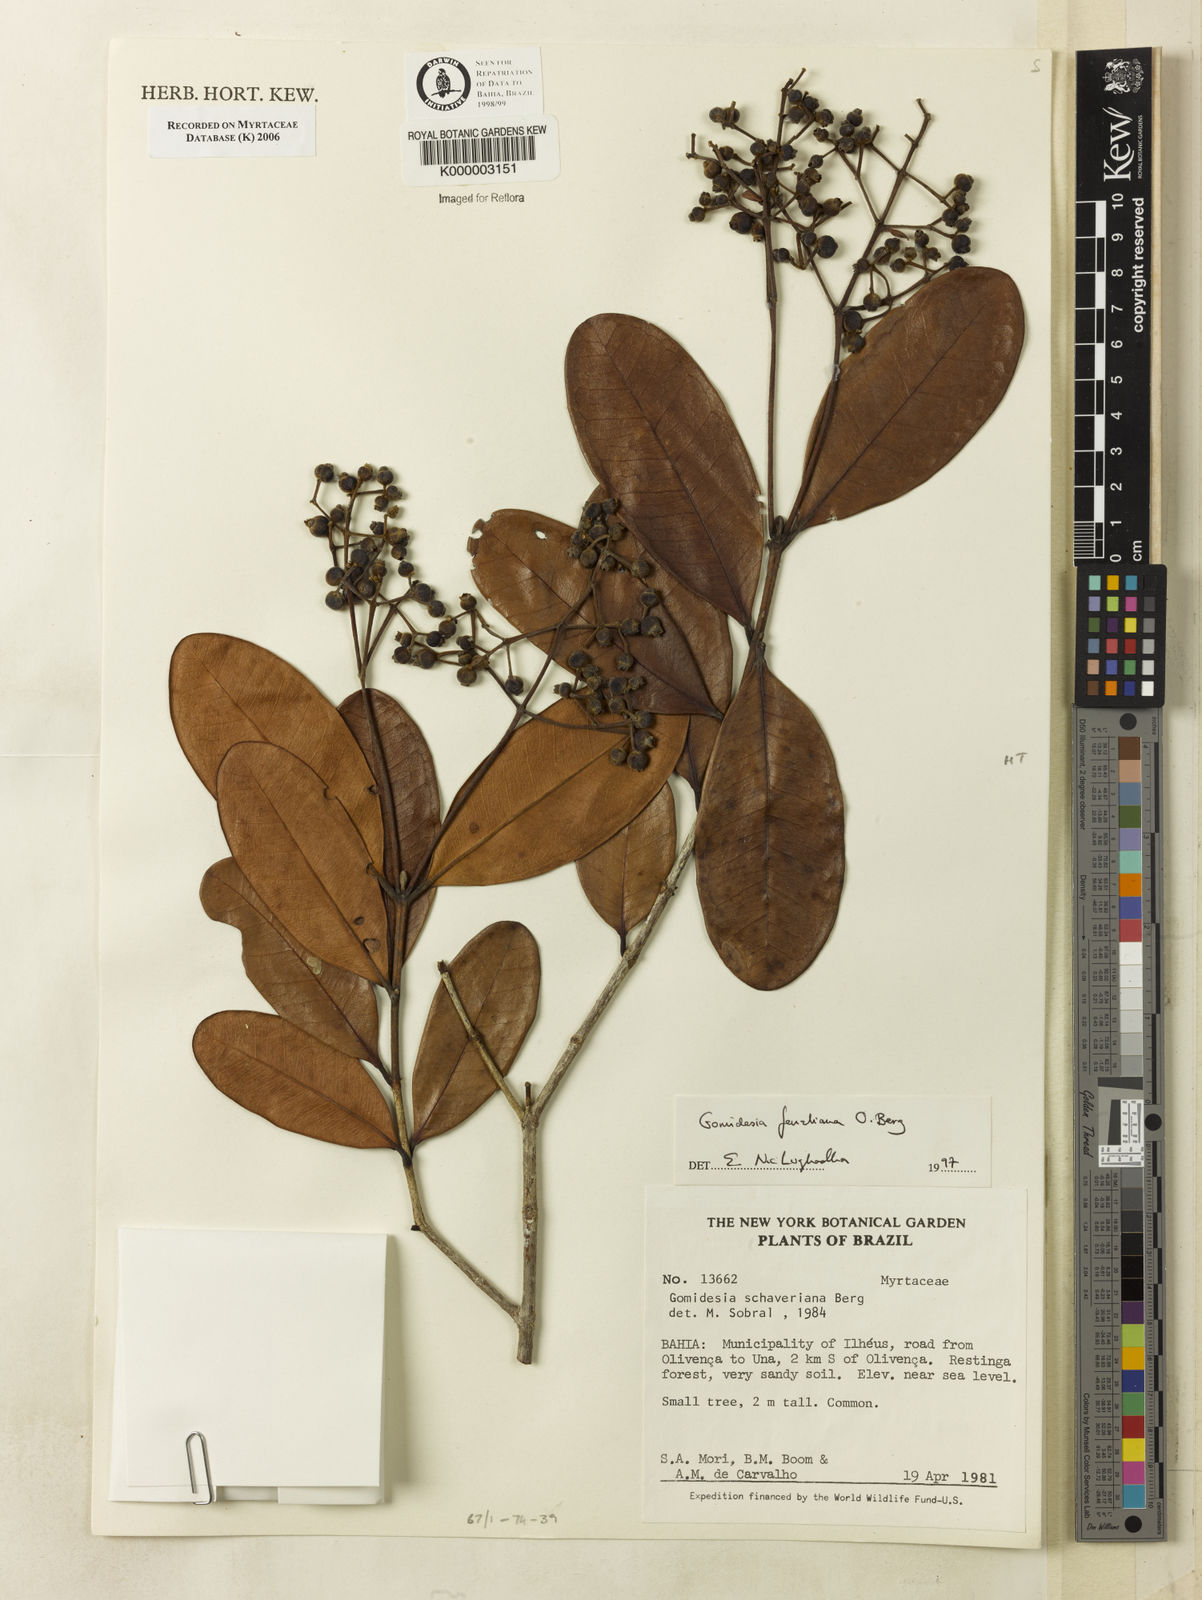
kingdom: Plantae
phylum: Tracheophyta
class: Magnoliopsida
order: Myrtales
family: Myrtaceae
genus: Myrcia
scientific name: Myrcia ilheosensis
